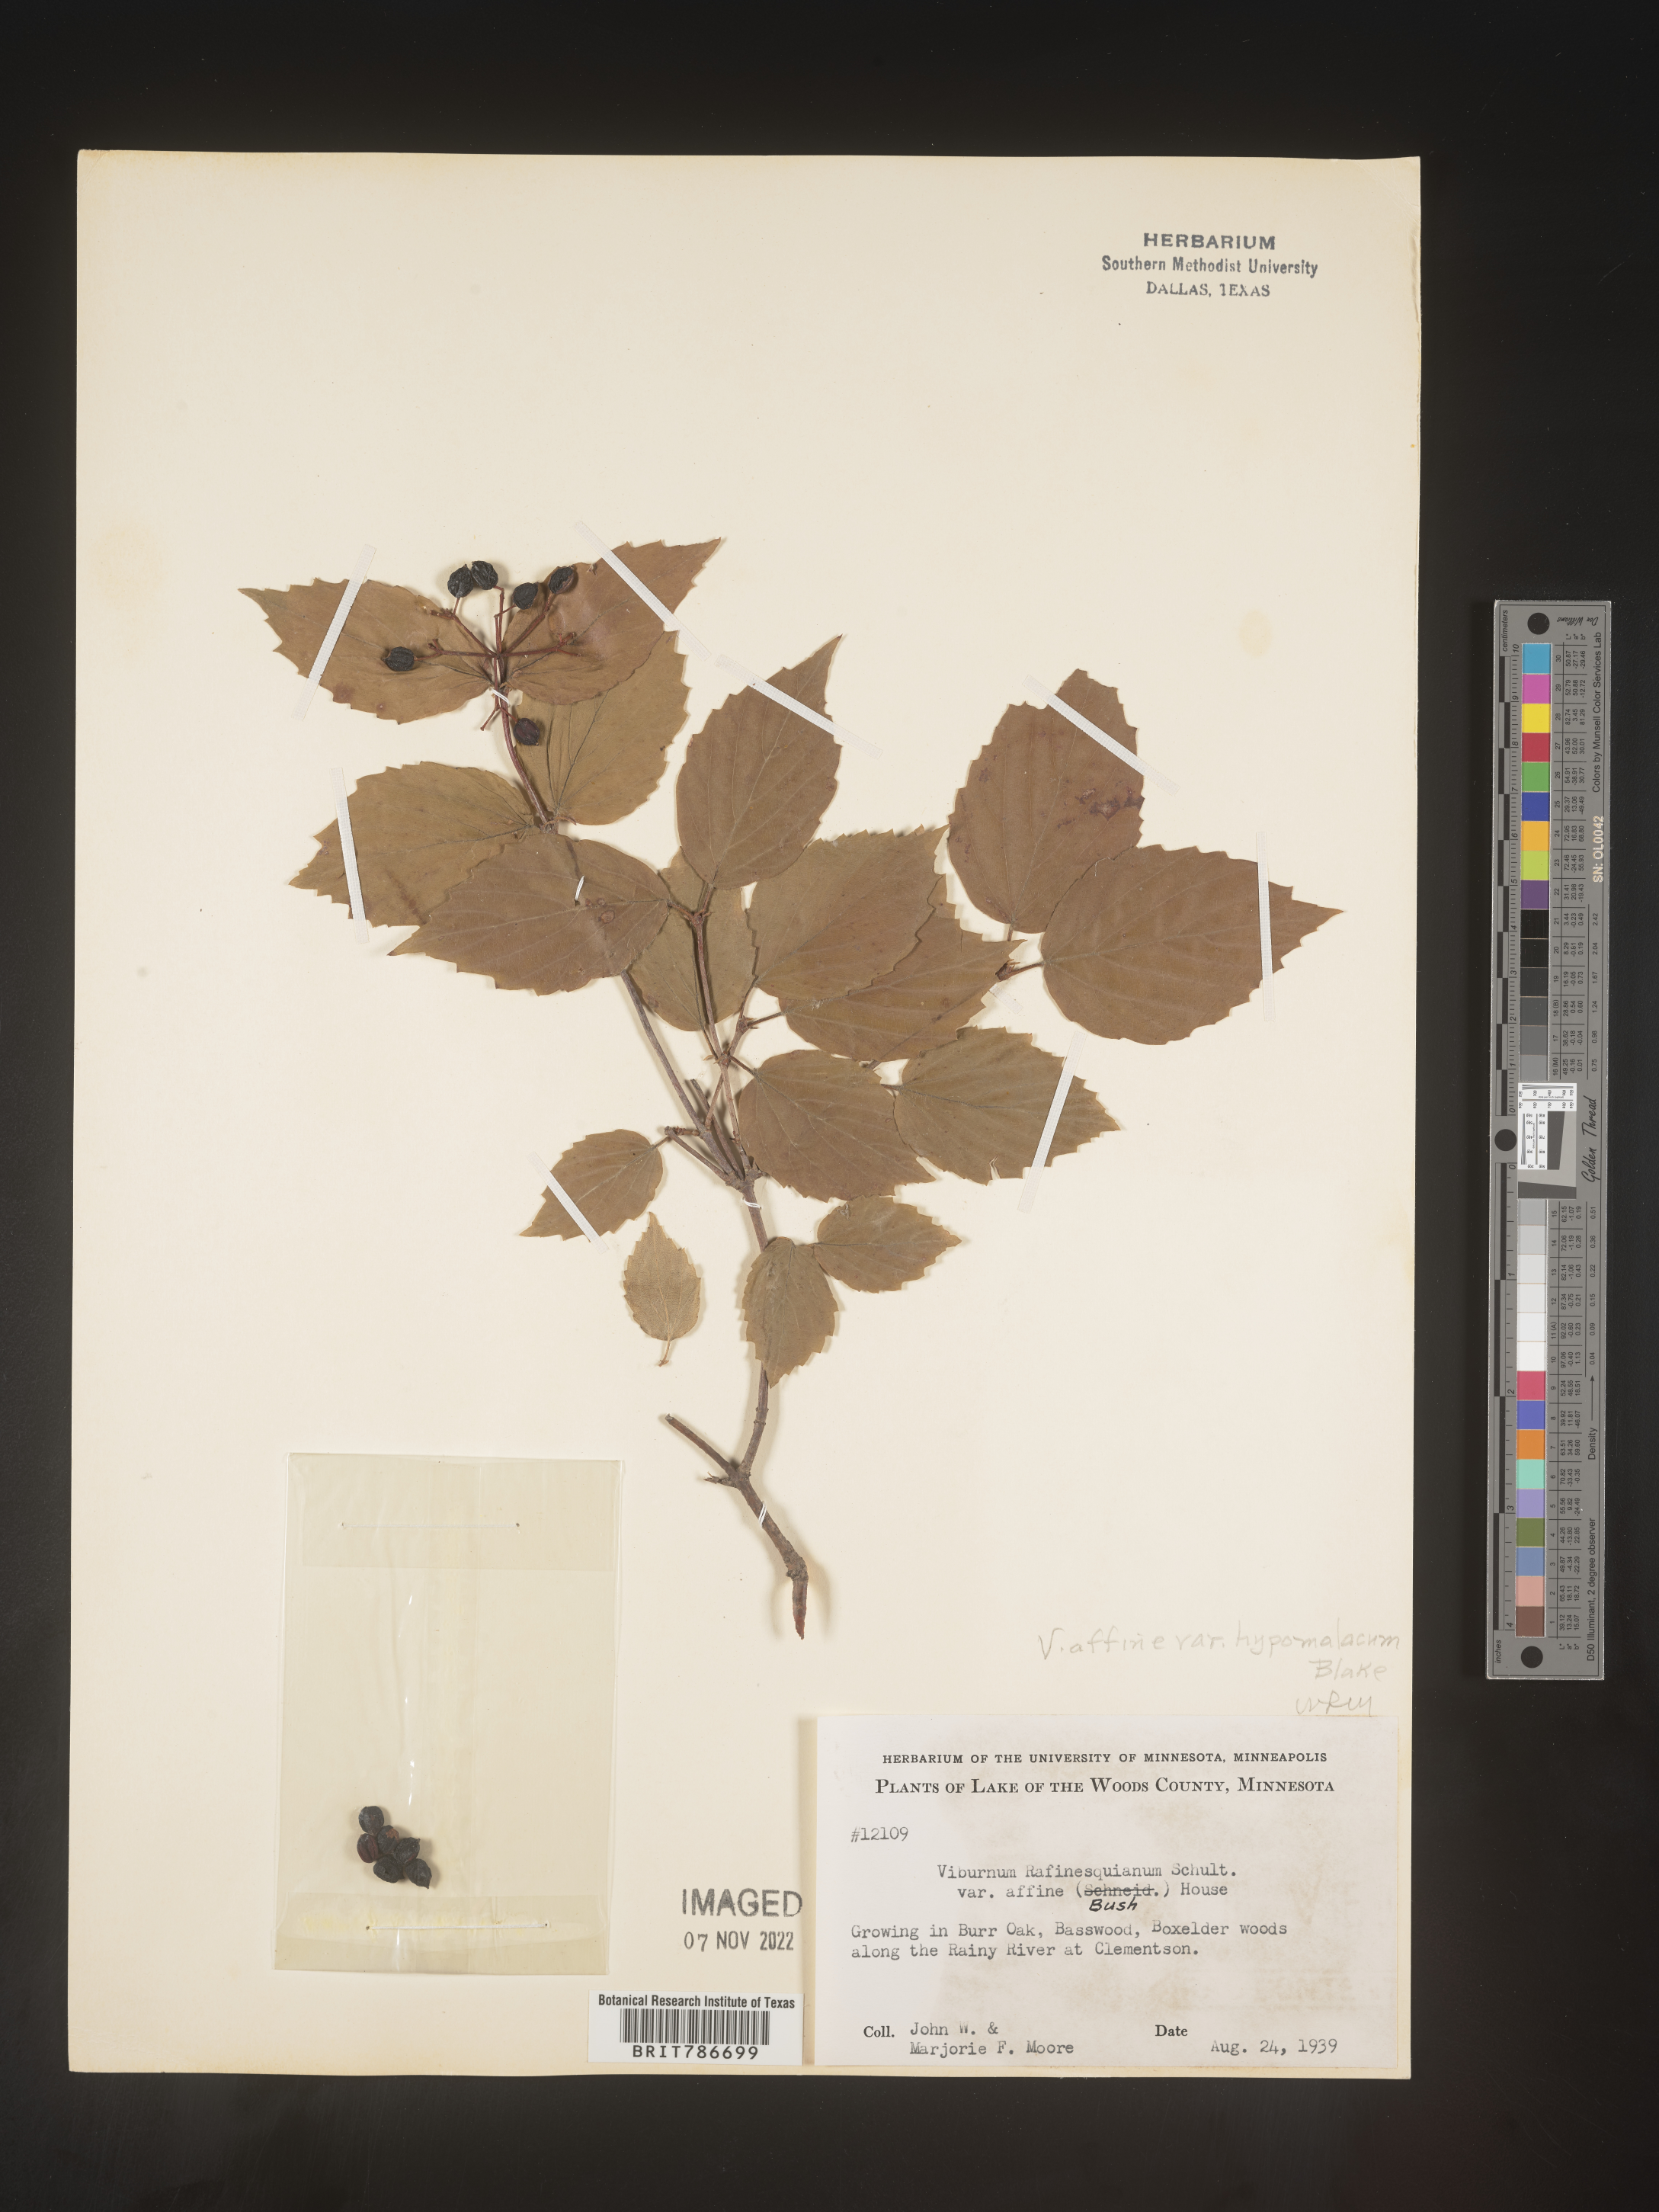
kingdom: Plantae
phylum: Tracheophyta
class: Magnoliopsida
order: Dipsacales
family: Viburnaceae
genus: Viburnum
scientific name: Viburnum rafinesqueanum
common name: Downy arrow-wood
